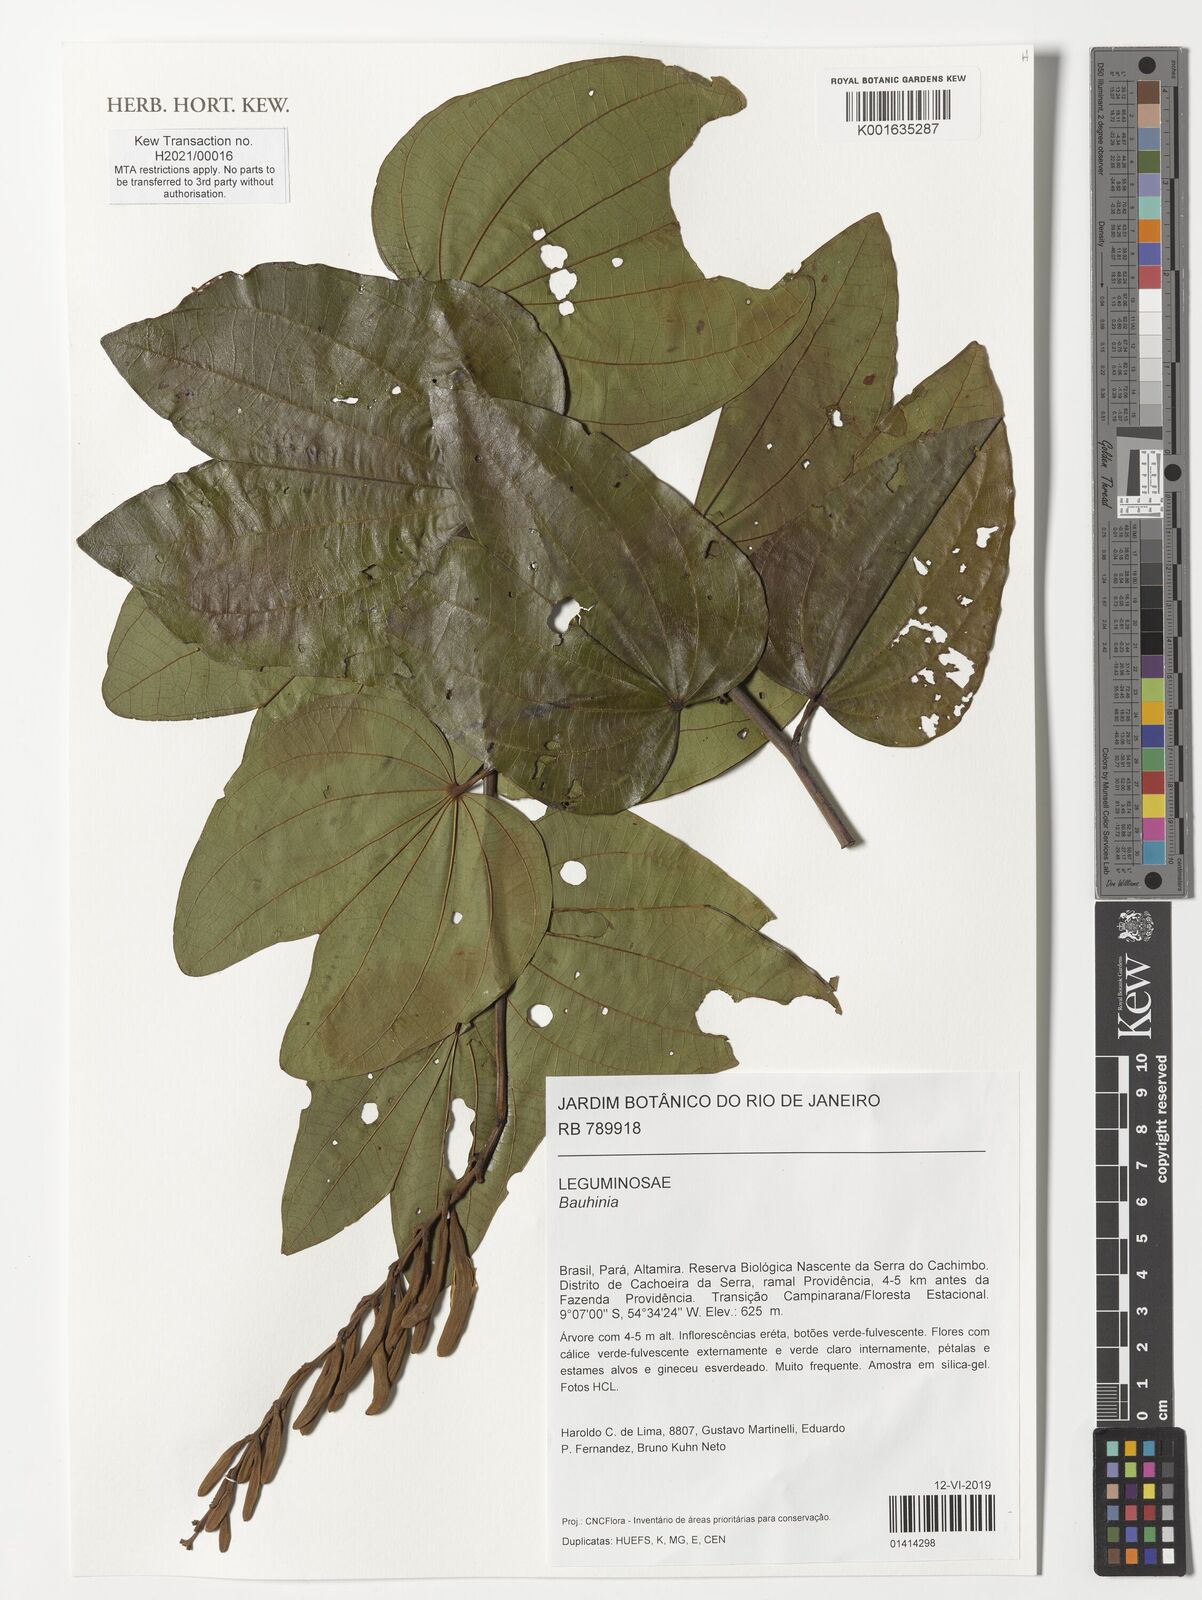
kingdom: Plantae
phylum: Tracheophyta
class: Magnoliopsida
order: Fabales
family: Fabaceae
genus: Bauhinia
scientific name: Bauhinia
